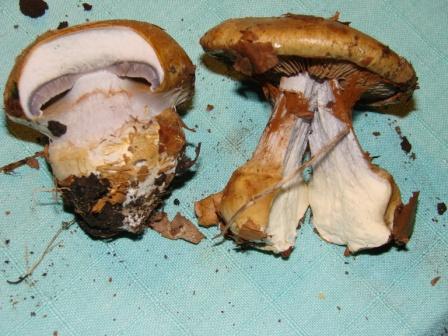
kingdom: Fungi
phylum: Basidiomycota
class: Agaricomycetes
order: Agaricales
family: Cortinariaceae
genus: Cortinarius
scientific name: Cortinarius anserinus
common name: bøge-slørhat
